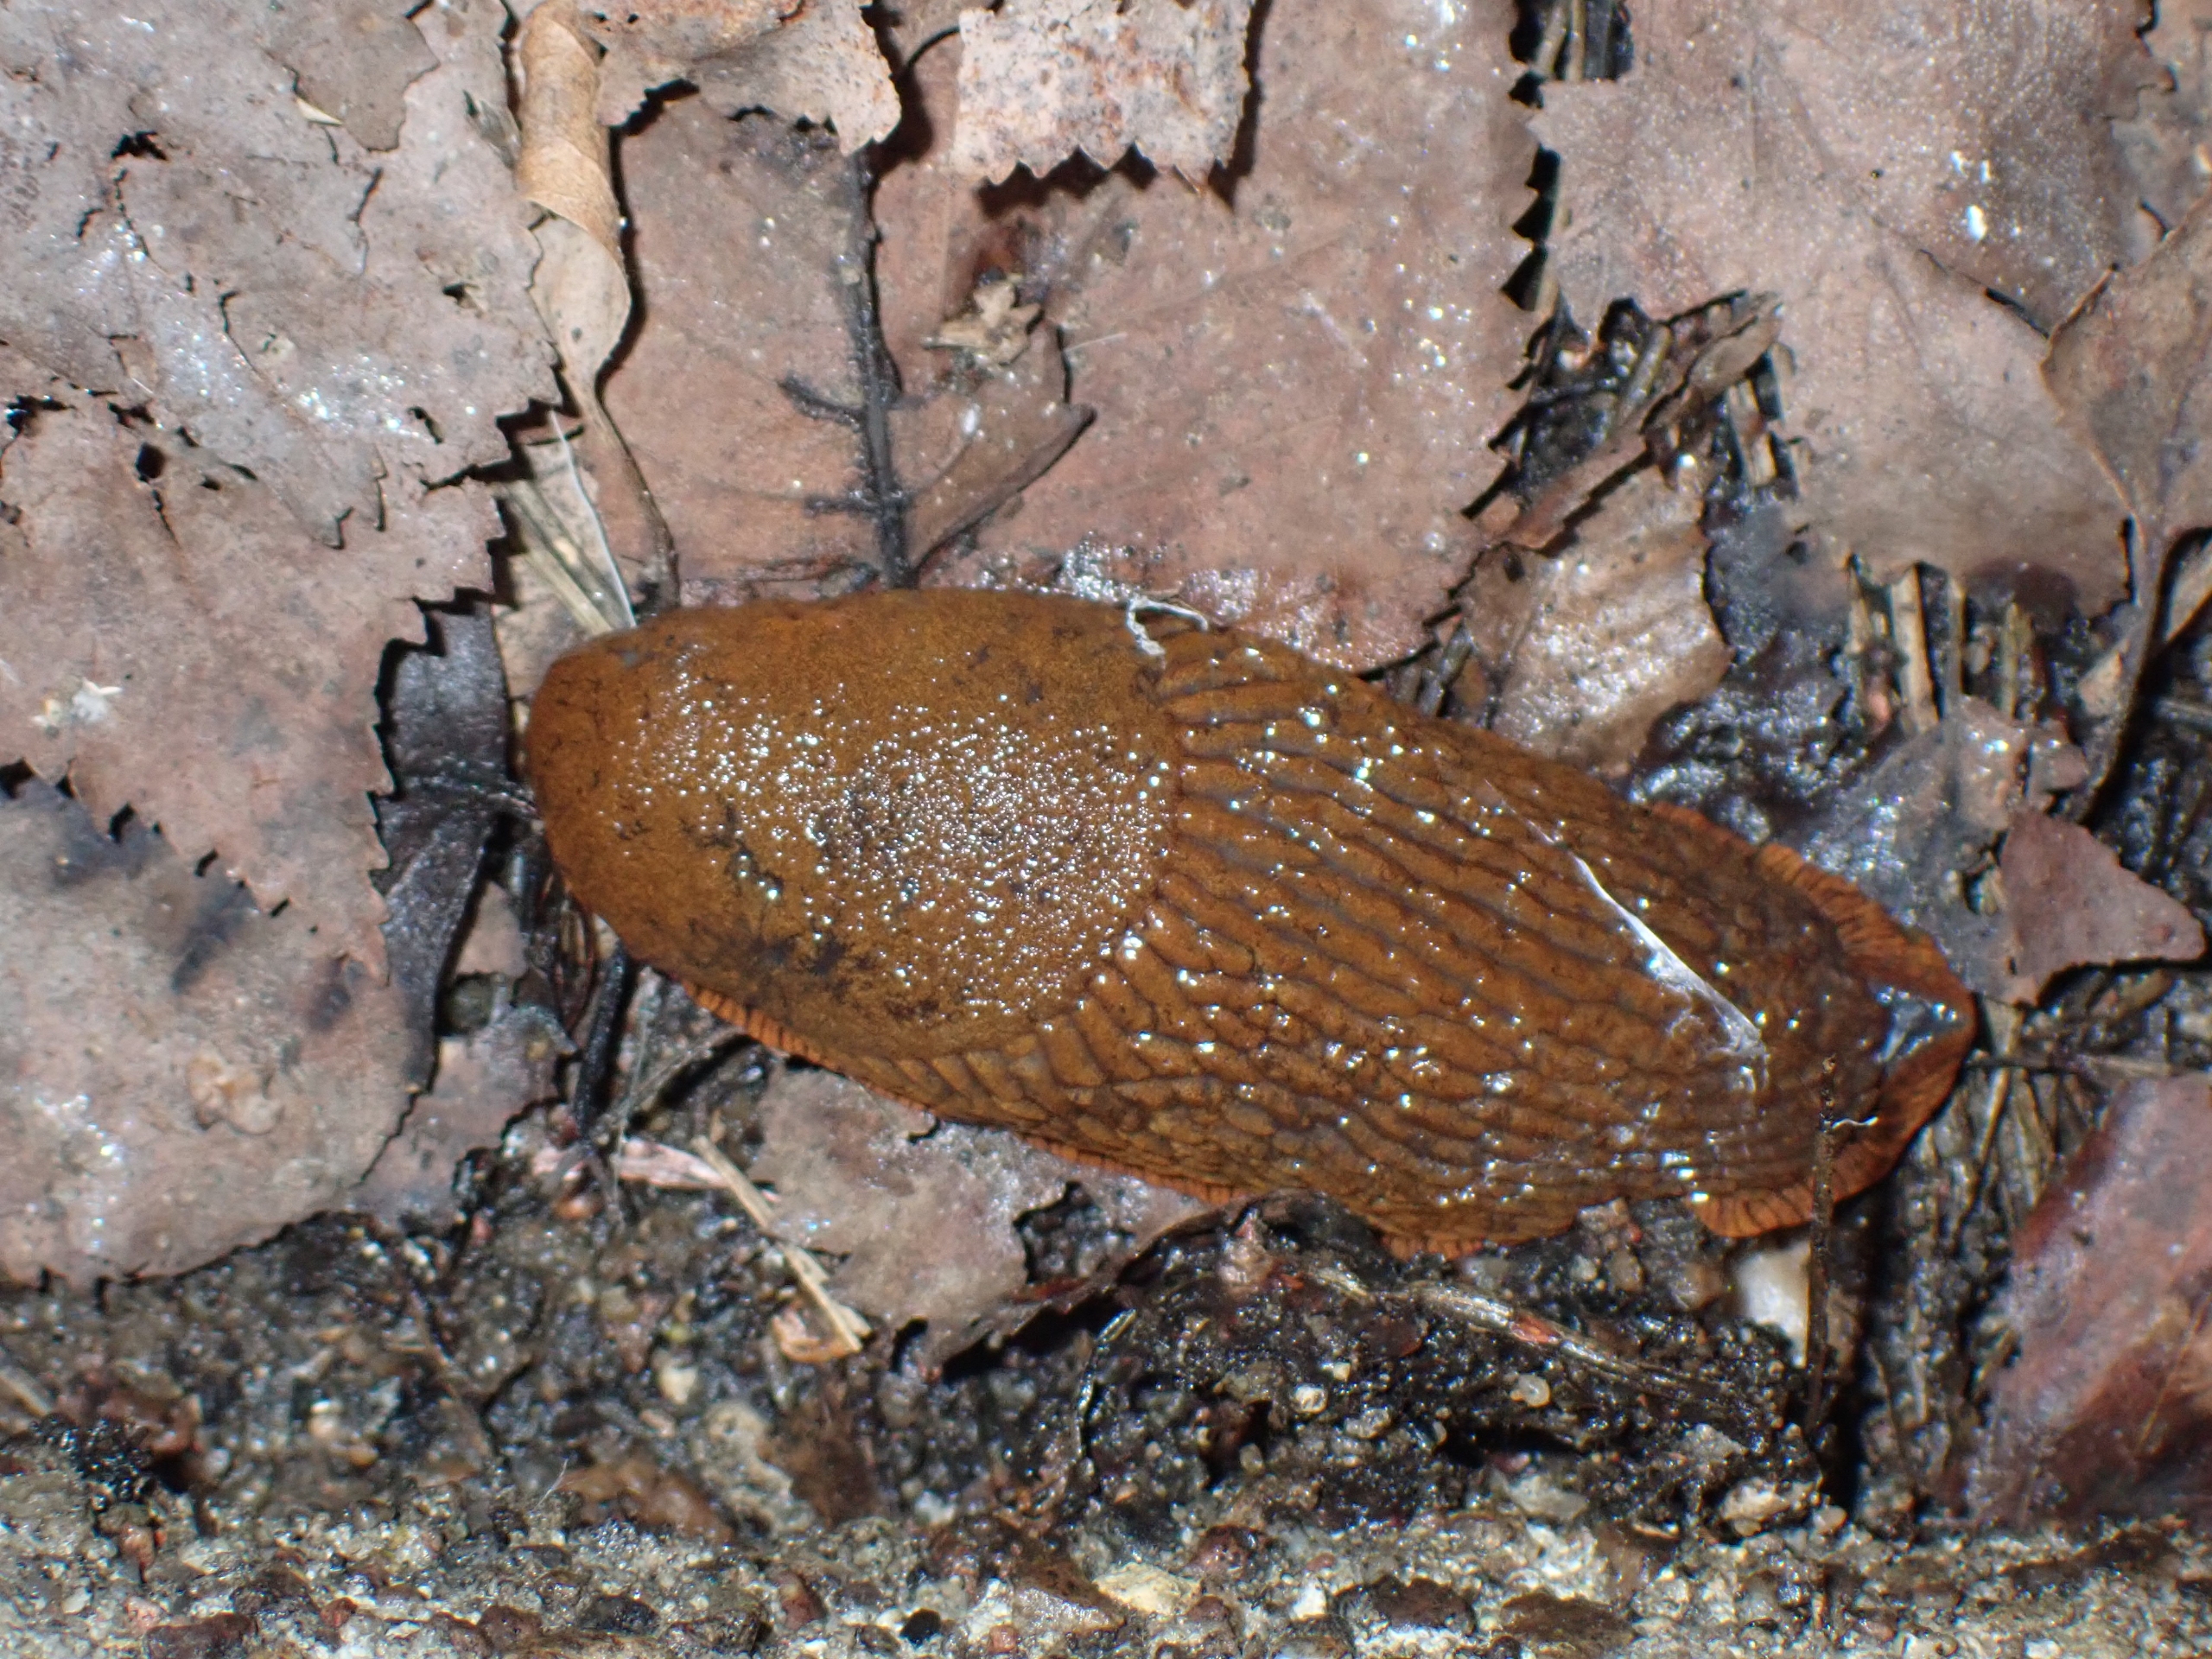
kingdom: Animalia
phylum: Mollusca
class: Gastropoda
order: Stylommatophora
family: Arionidae
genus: Arion
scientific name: Arion rufus
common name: Rød skovsnegl
